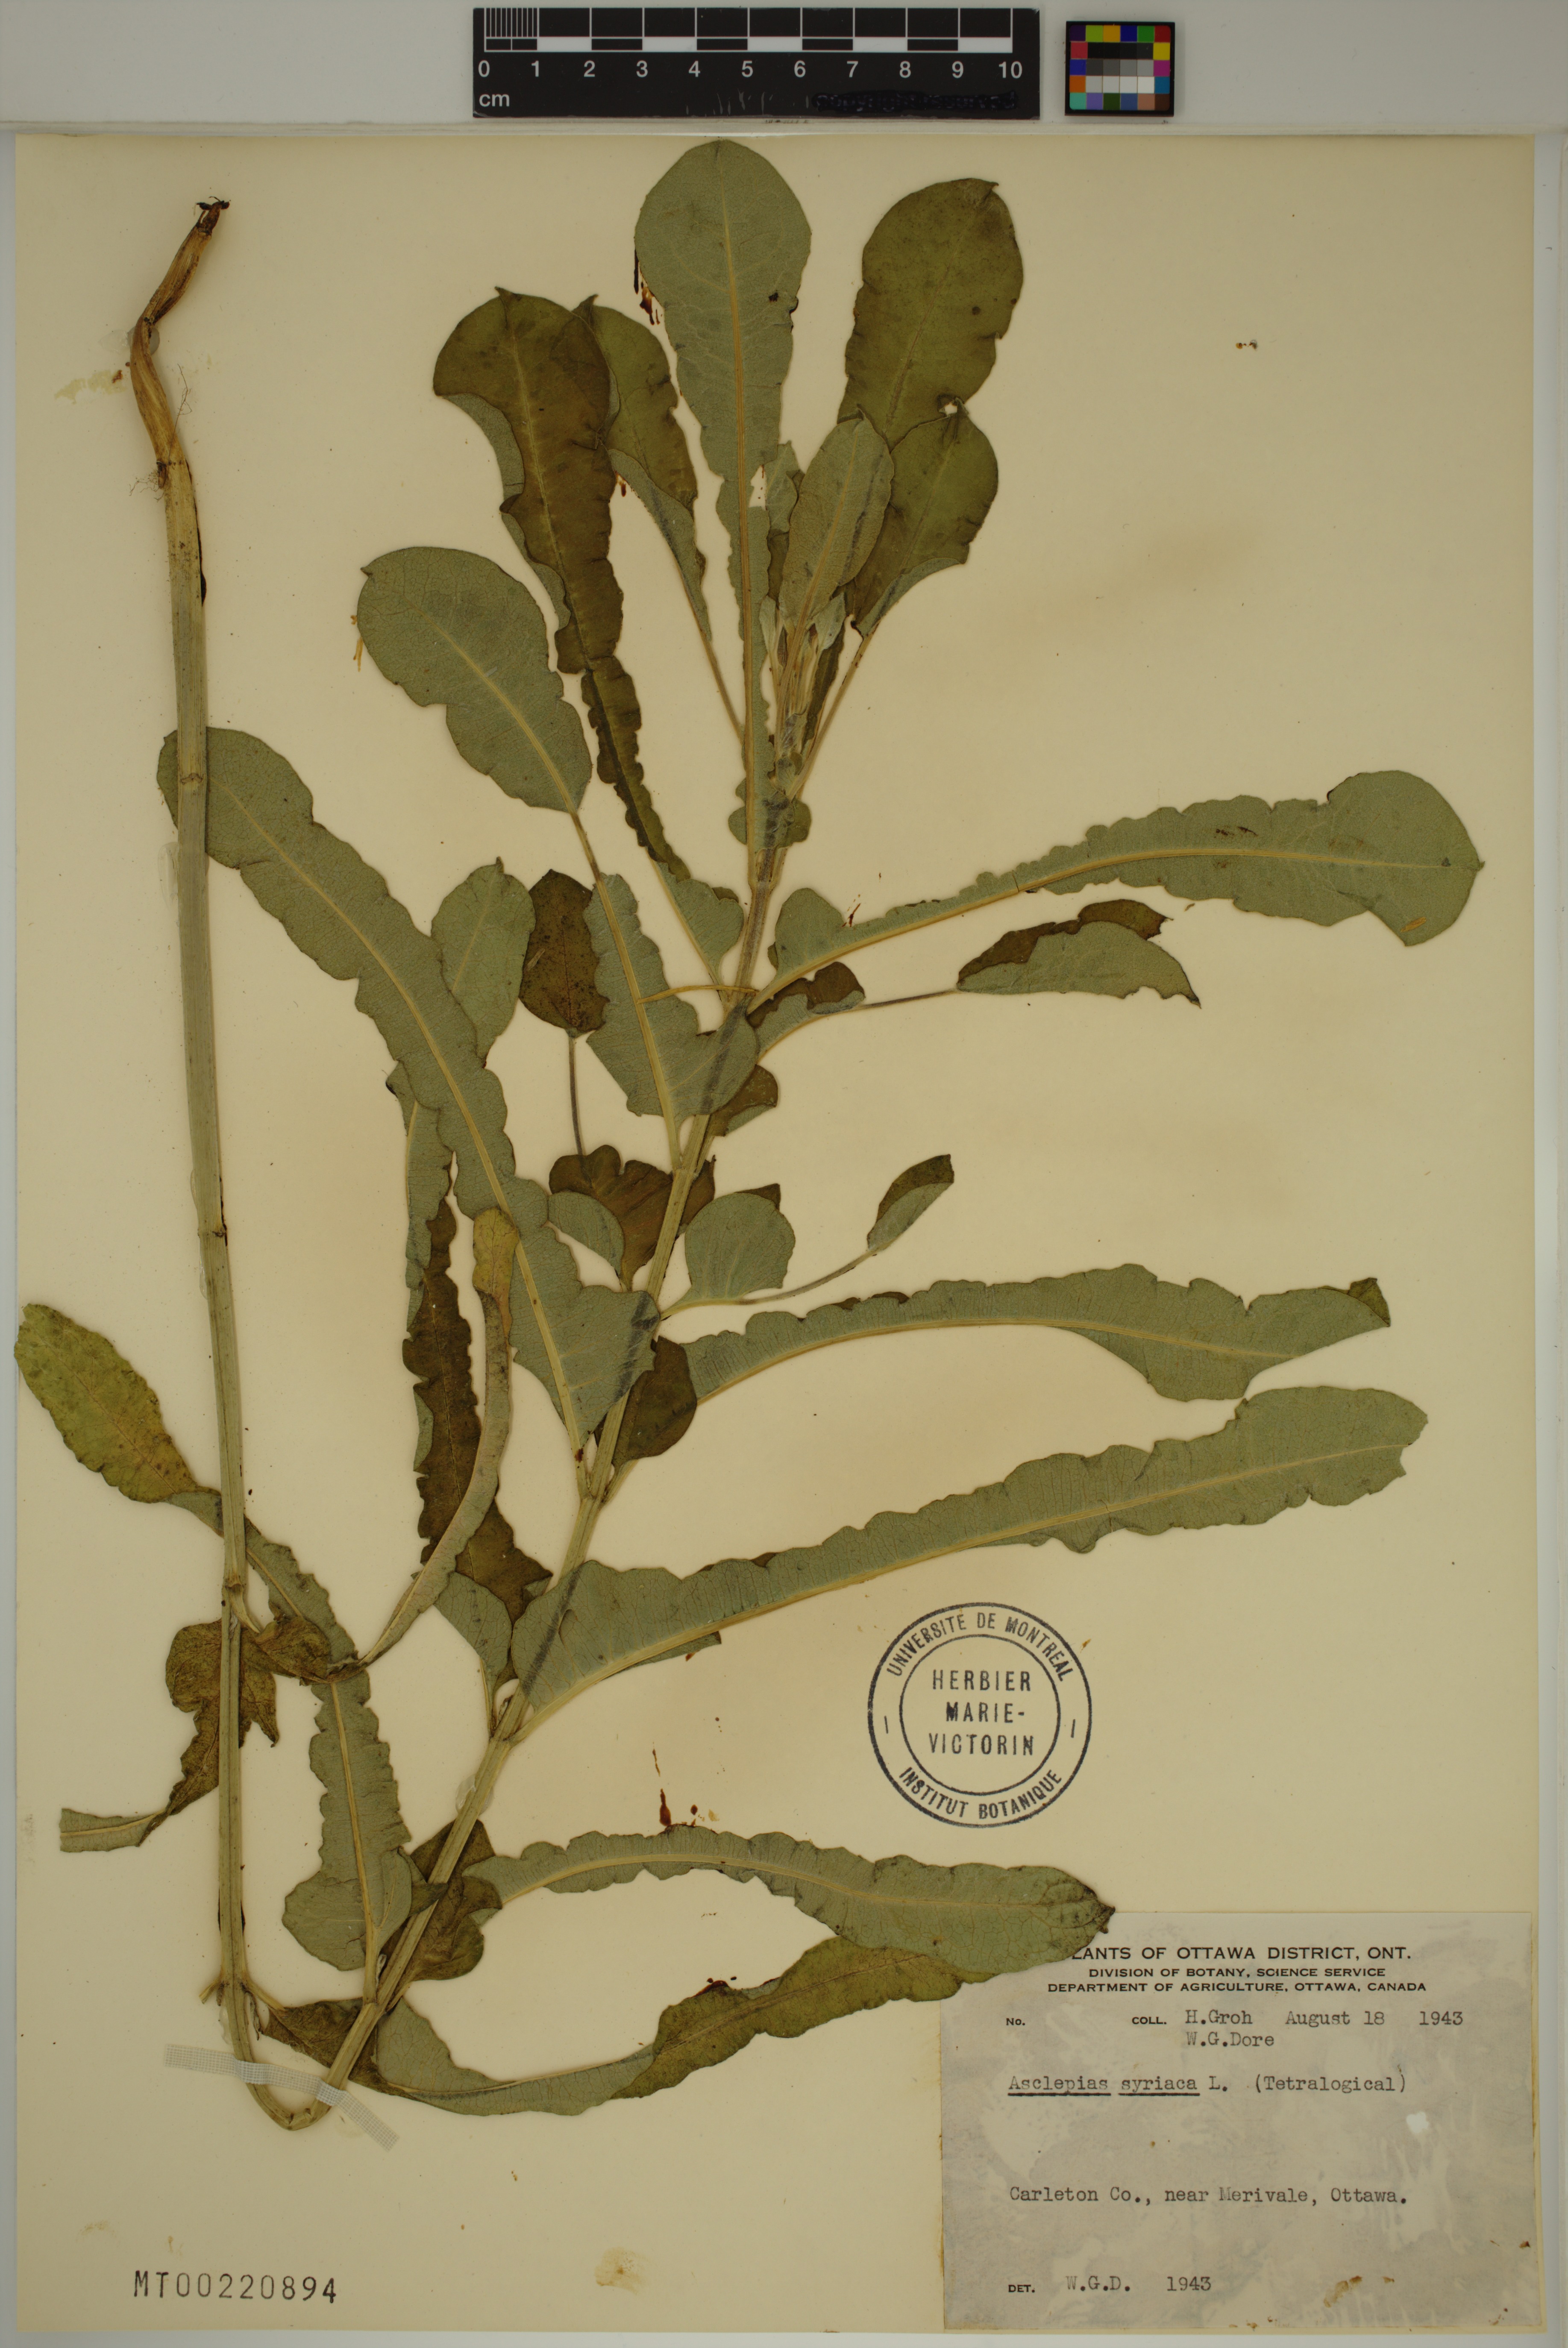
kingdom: Plantae
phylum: Tracheophyta
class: Magnoliopsida
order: Gentianales
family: Apocynaceae
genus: Asclepias
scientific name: Asclepias syriaca
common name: Common milkweed
